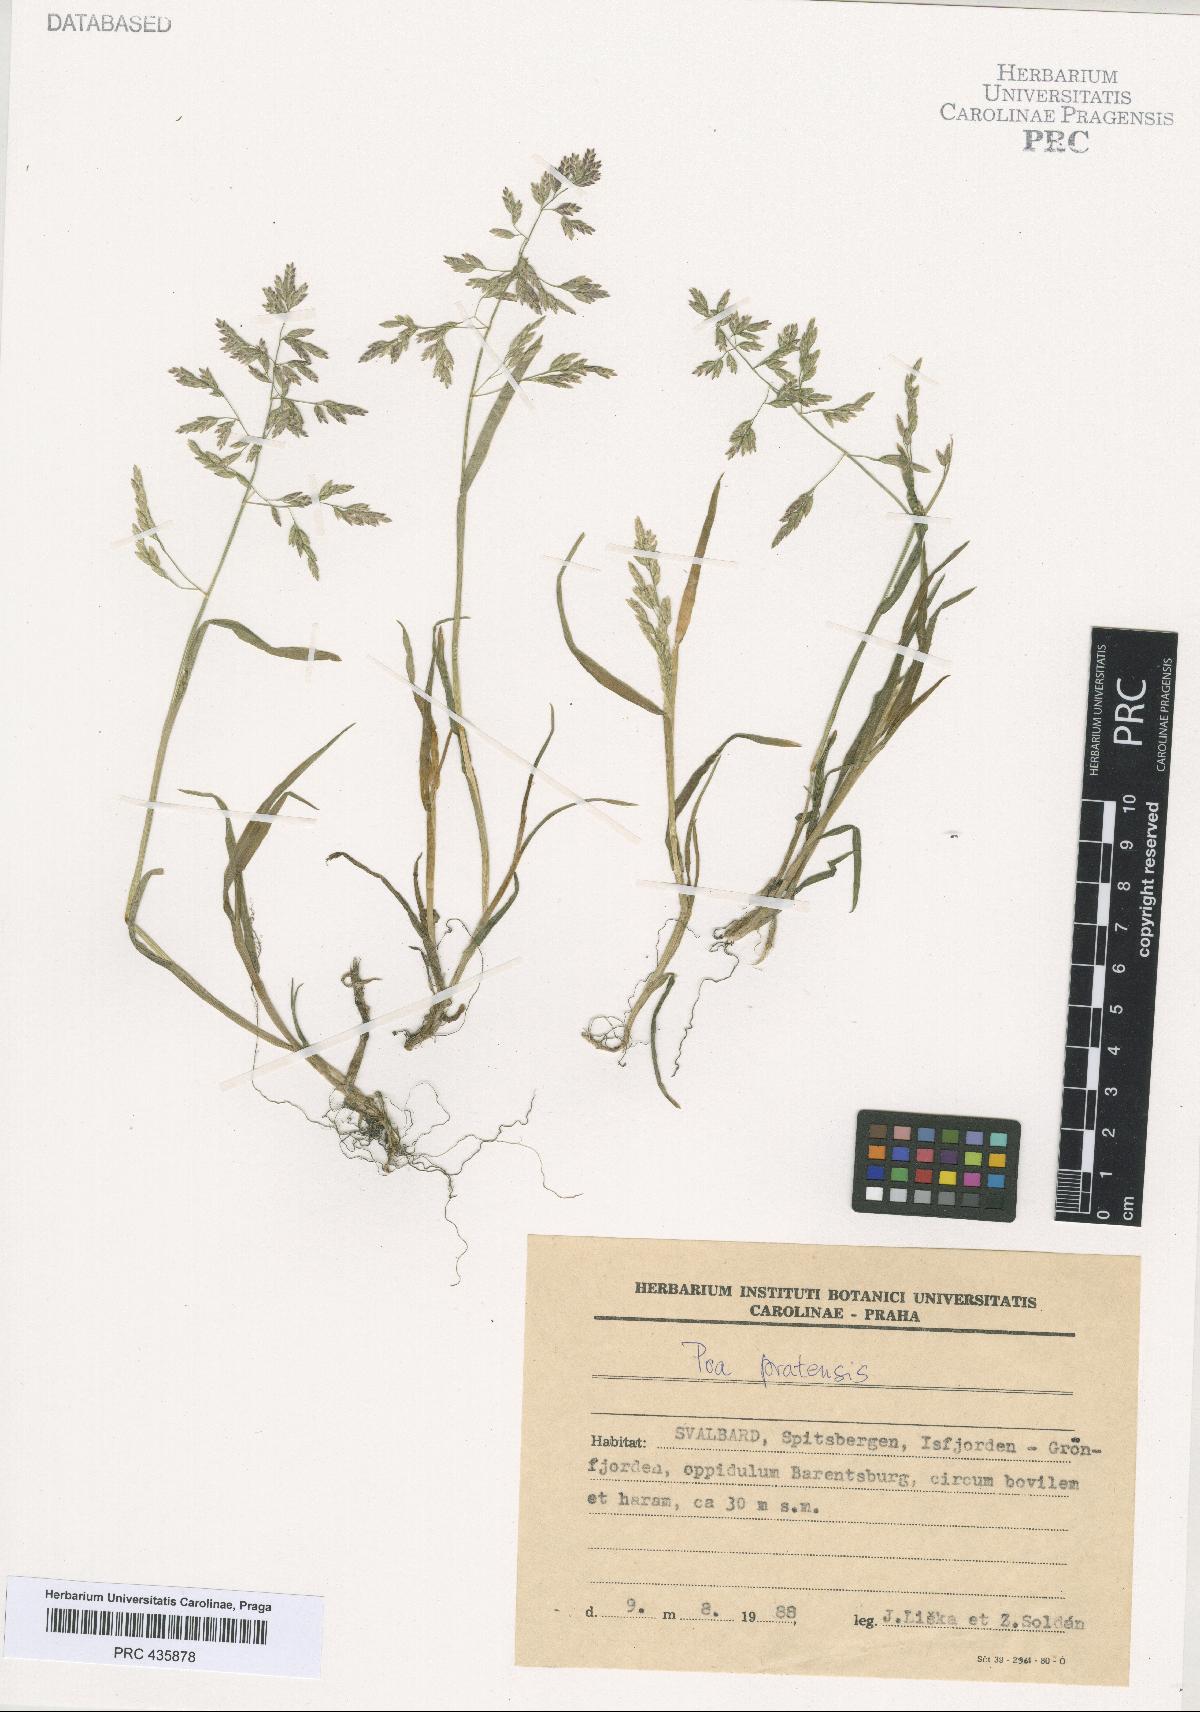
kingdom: Plantae
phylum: Tracheophyta
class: Liliopsida
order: Poales
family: Poaceae
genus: Poa
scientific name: Poa pratensis
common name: Kentucky bluegrass
